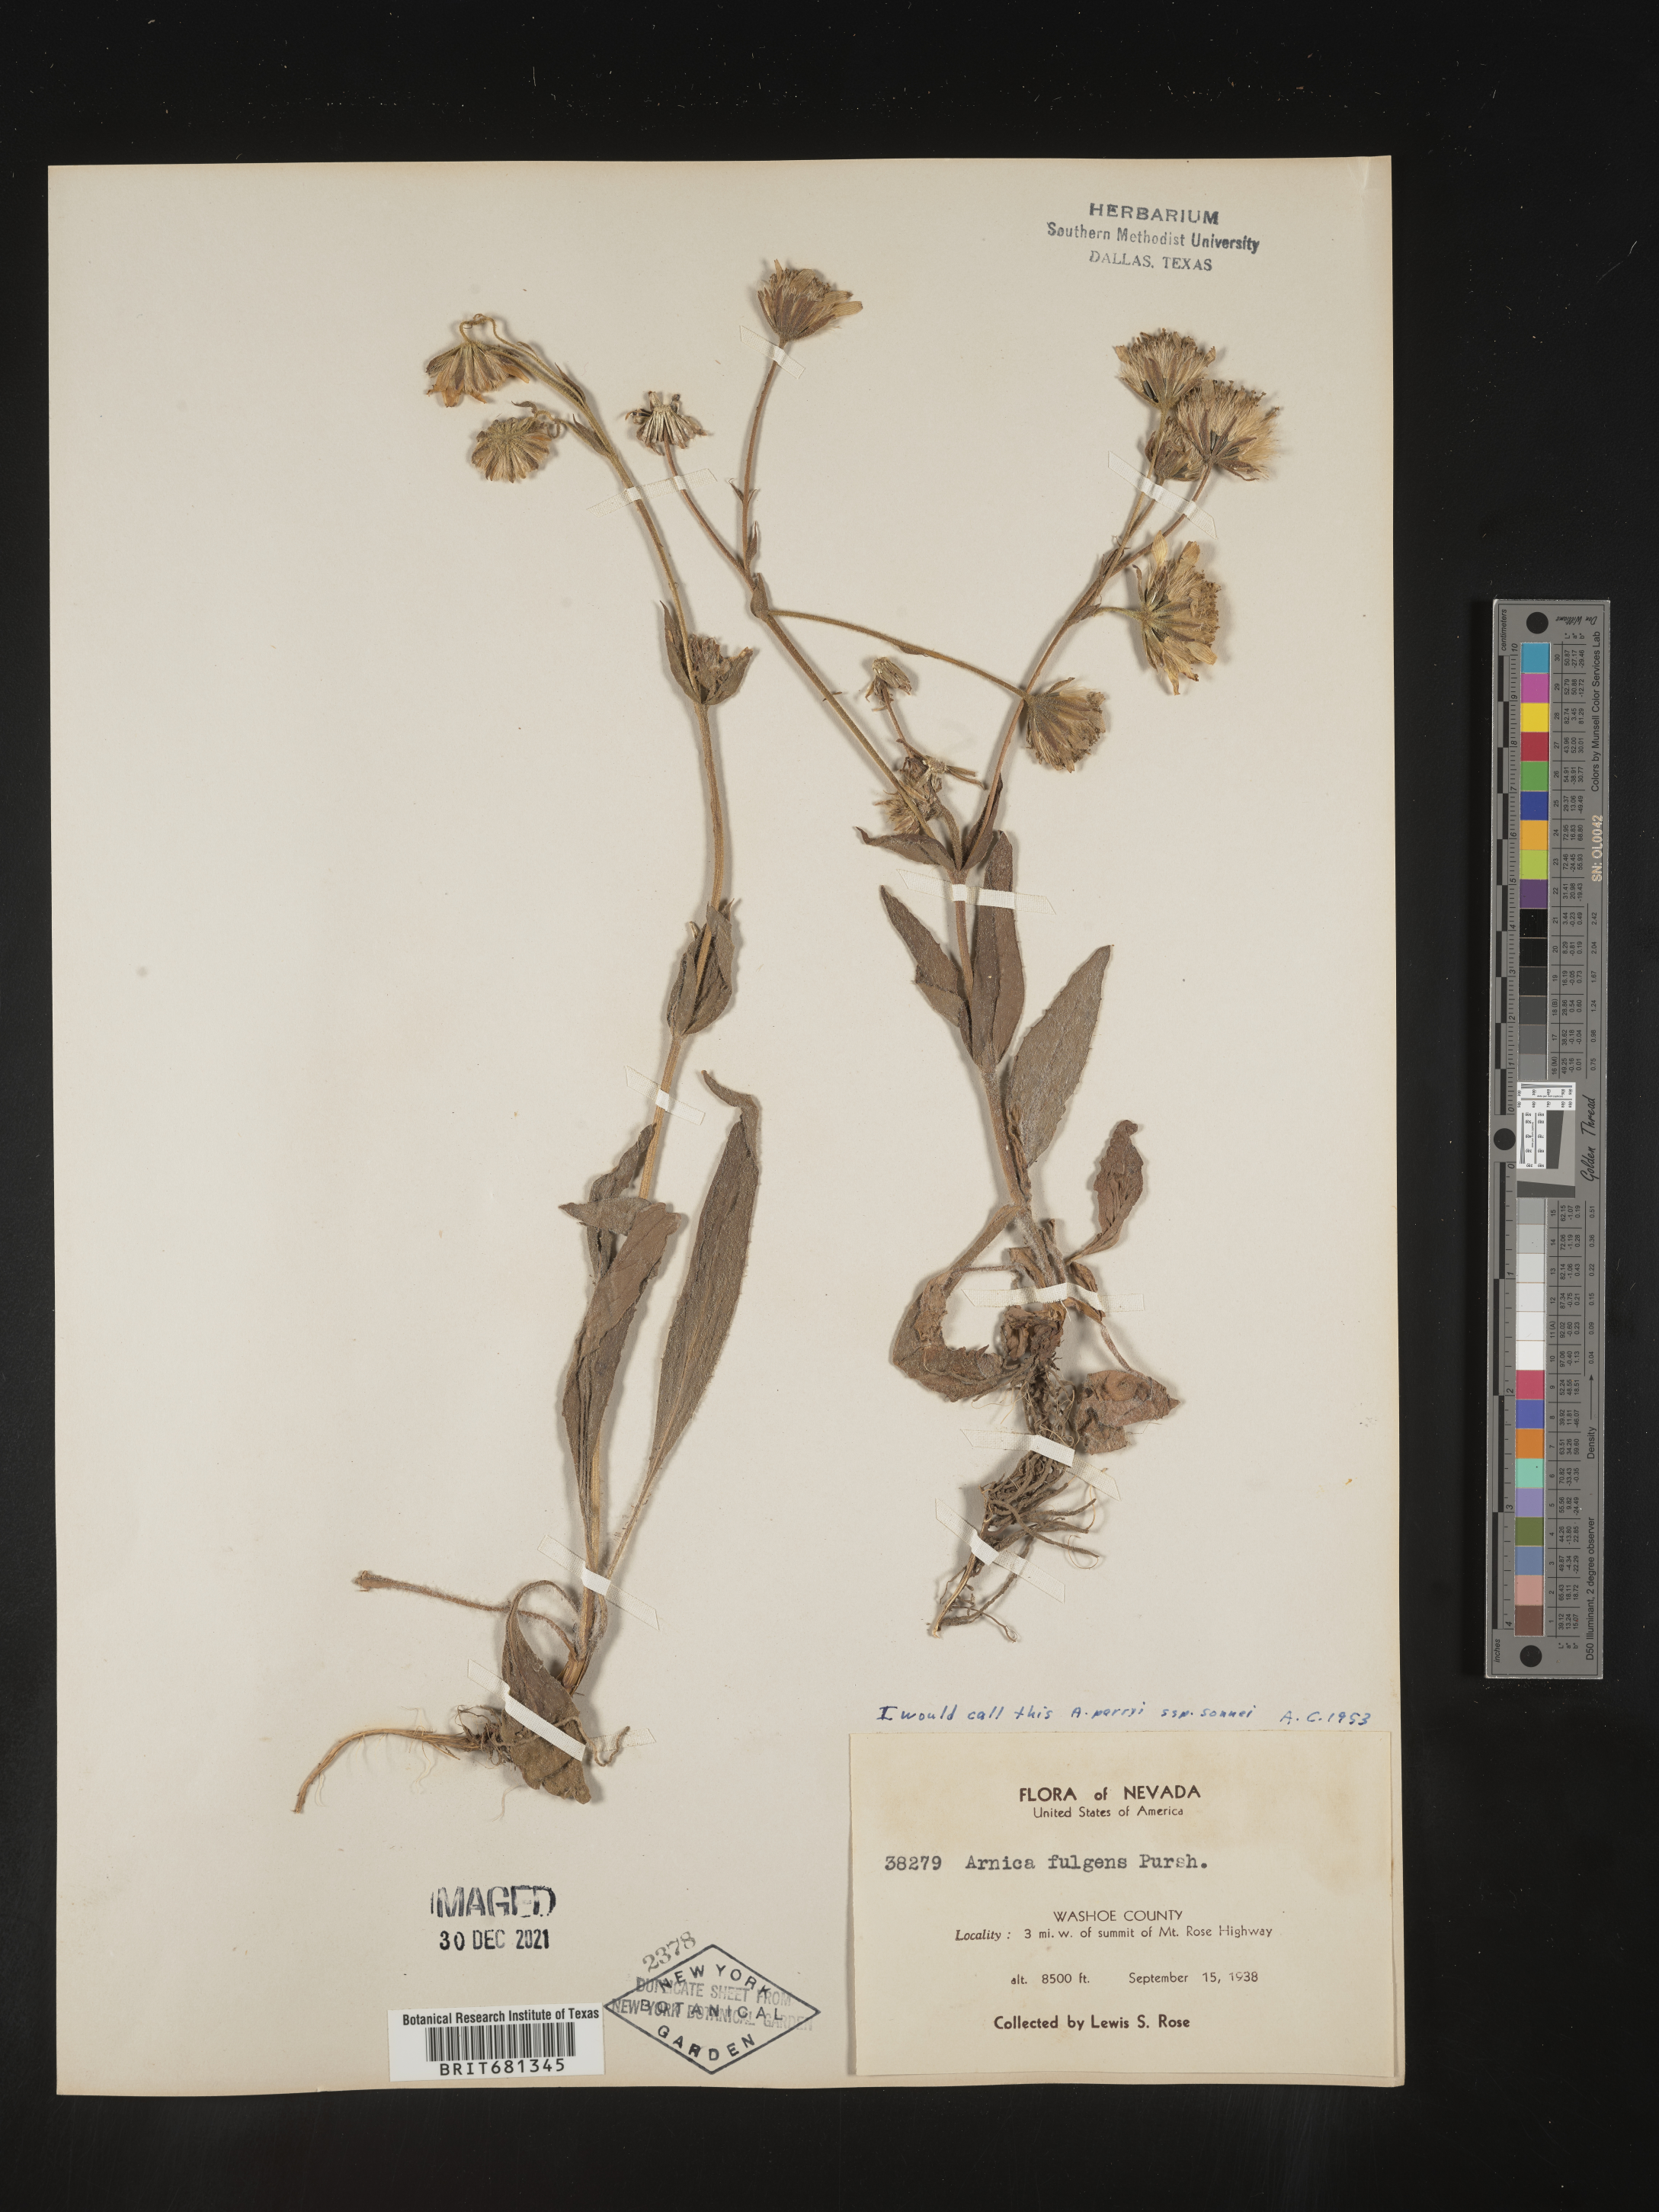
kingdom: Plantae
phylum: Tracheophyta
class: Magnoliopsida
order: Asterales
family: Asteraceae
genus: Arnica
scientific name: Arnica parryi
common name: Parry's arnica
